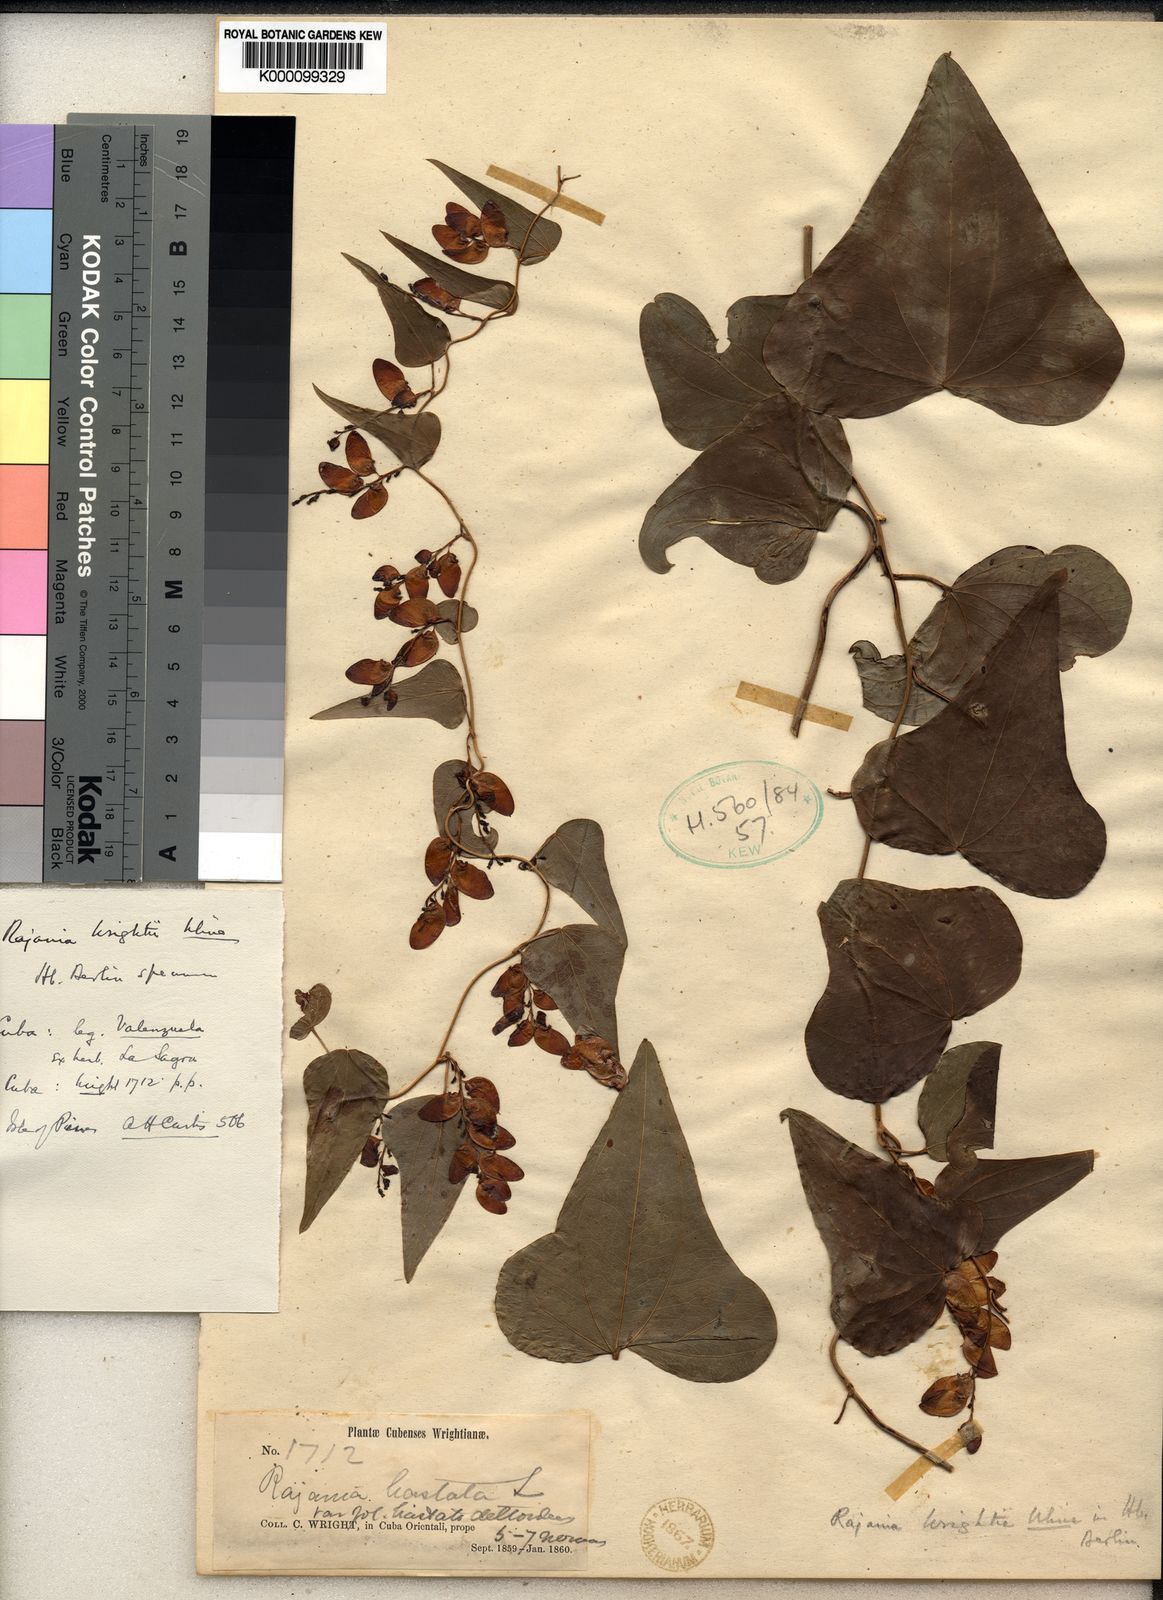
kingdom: Plantae
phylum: Tracheophyta
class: Liliopsida
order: Dioscoreales
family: Dioscoreaceae
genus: Dioscorea
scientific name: Dioscorea nipensis
